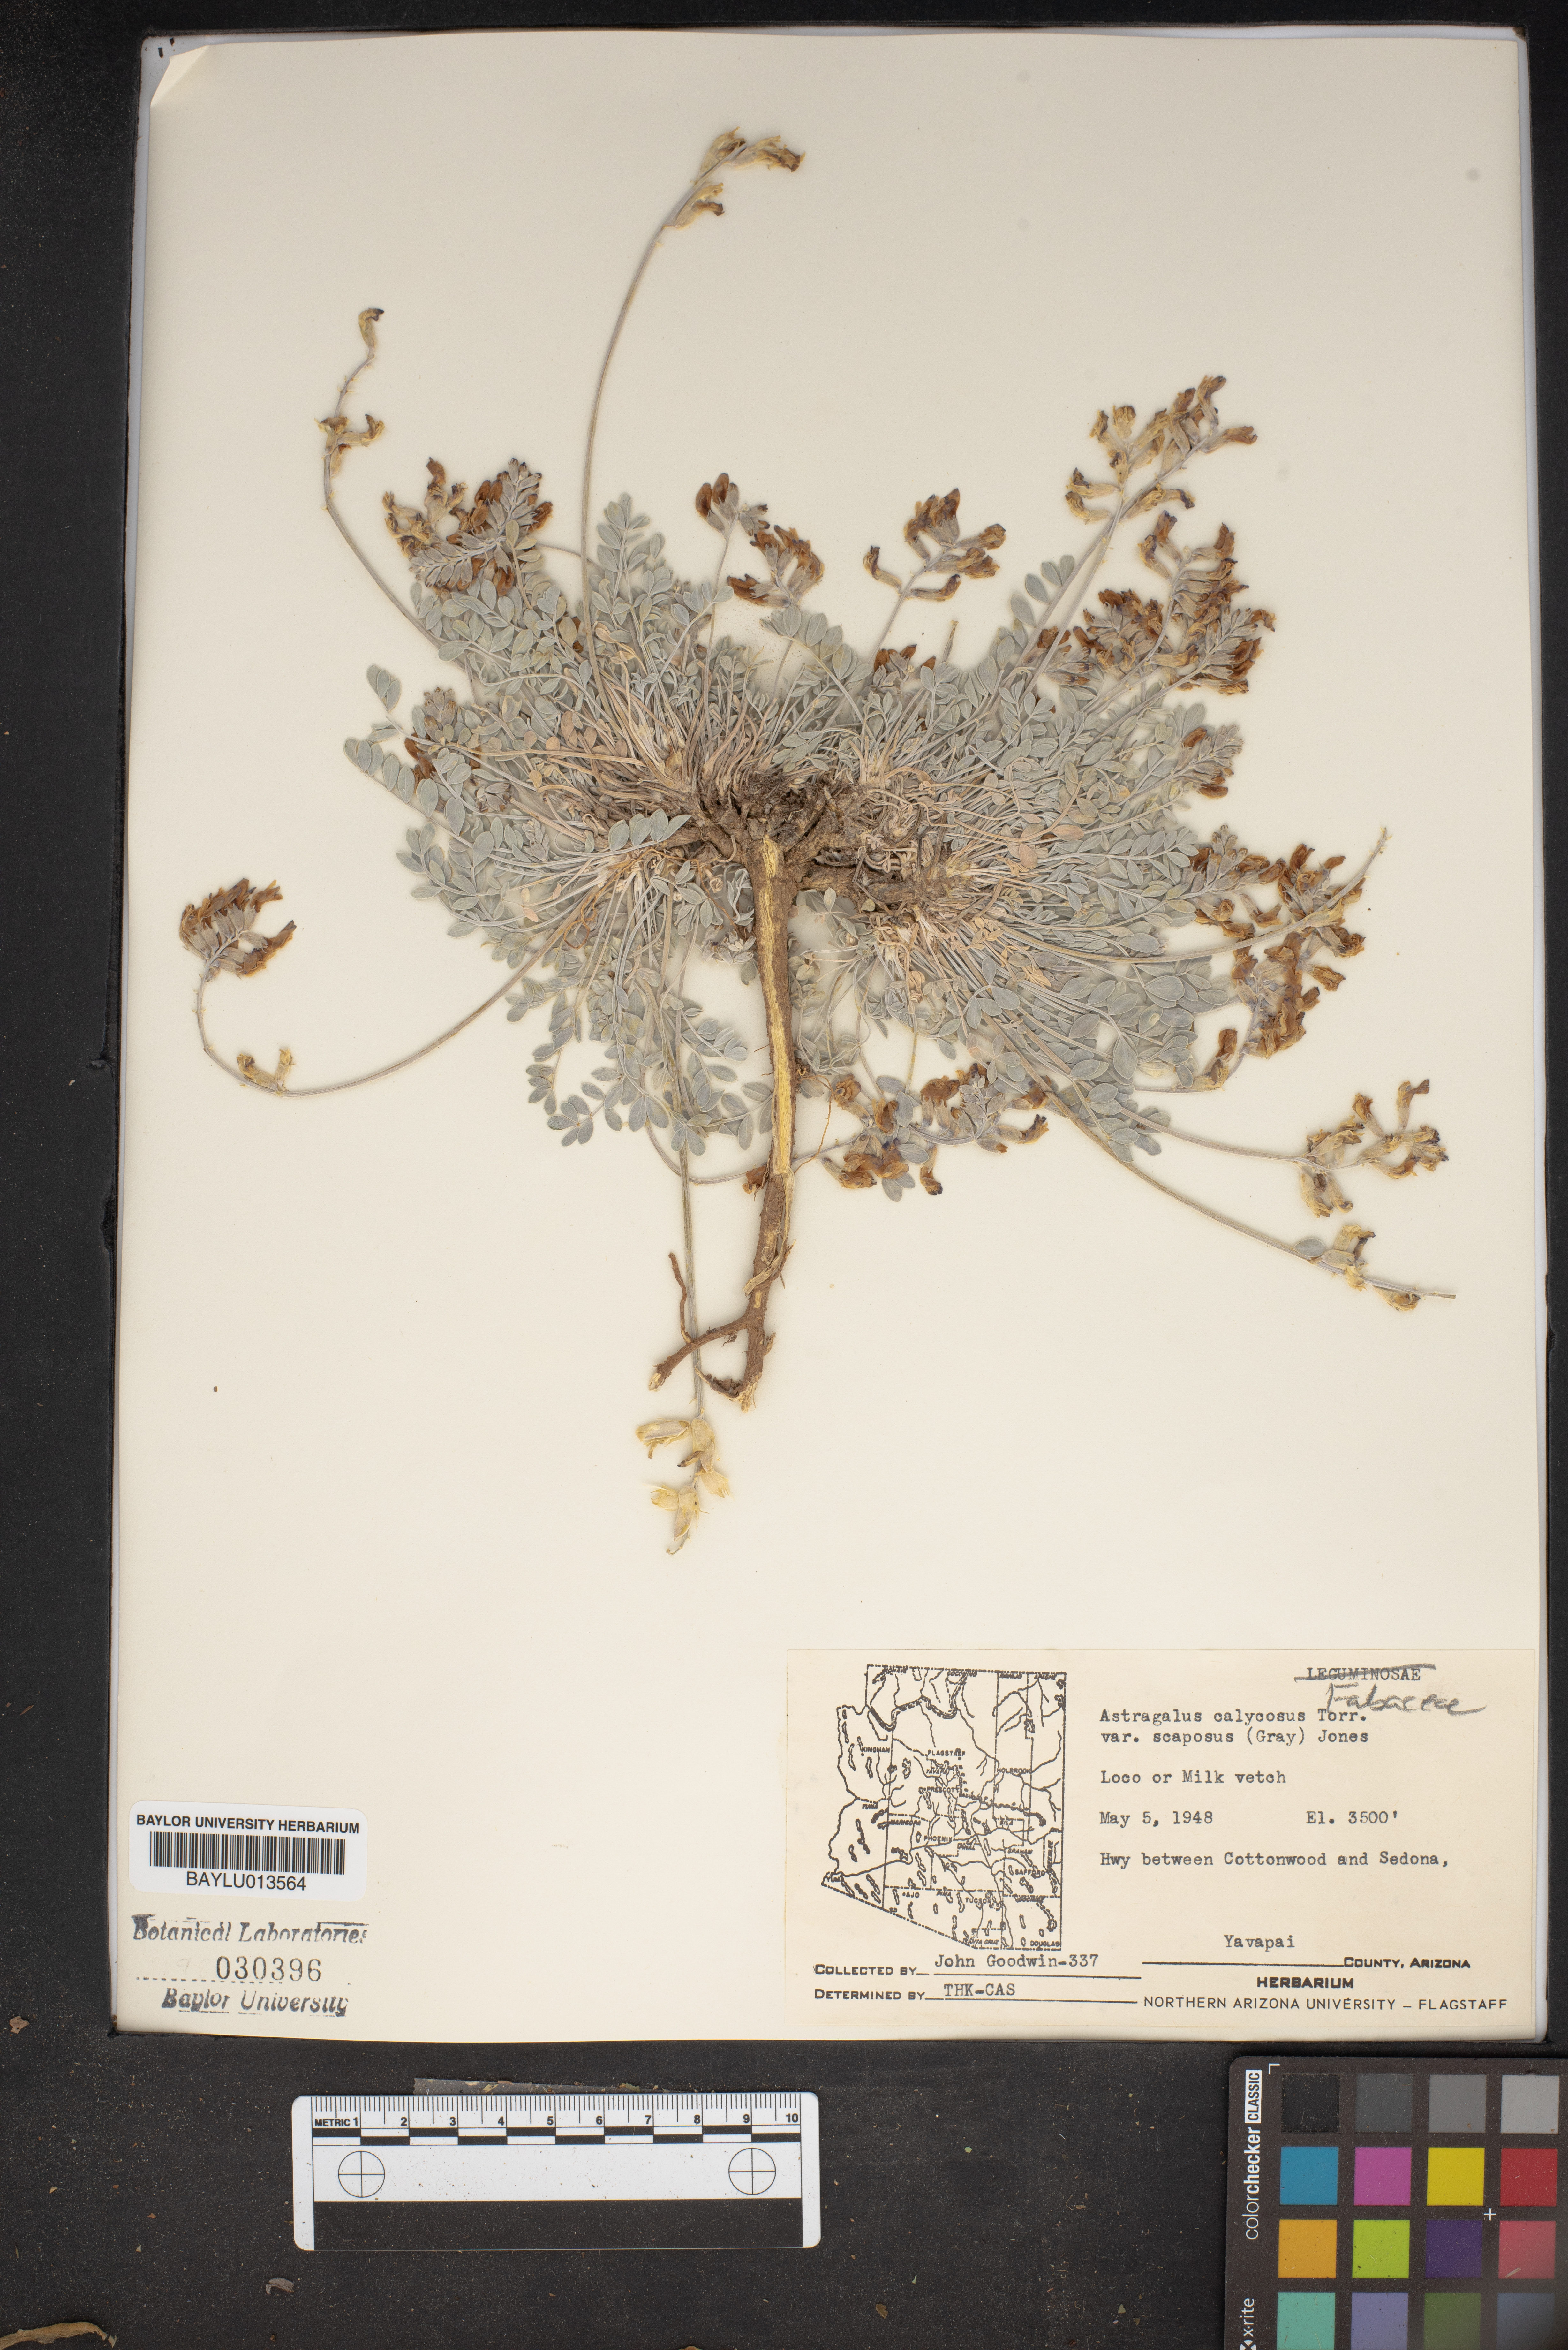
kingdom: Plantae
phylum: Tracheophyta
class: Magnoliopsida
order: Fabales
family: Fabaceae
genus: Astragalus
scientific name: Astragalus calycosus
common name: King's milkvetch
